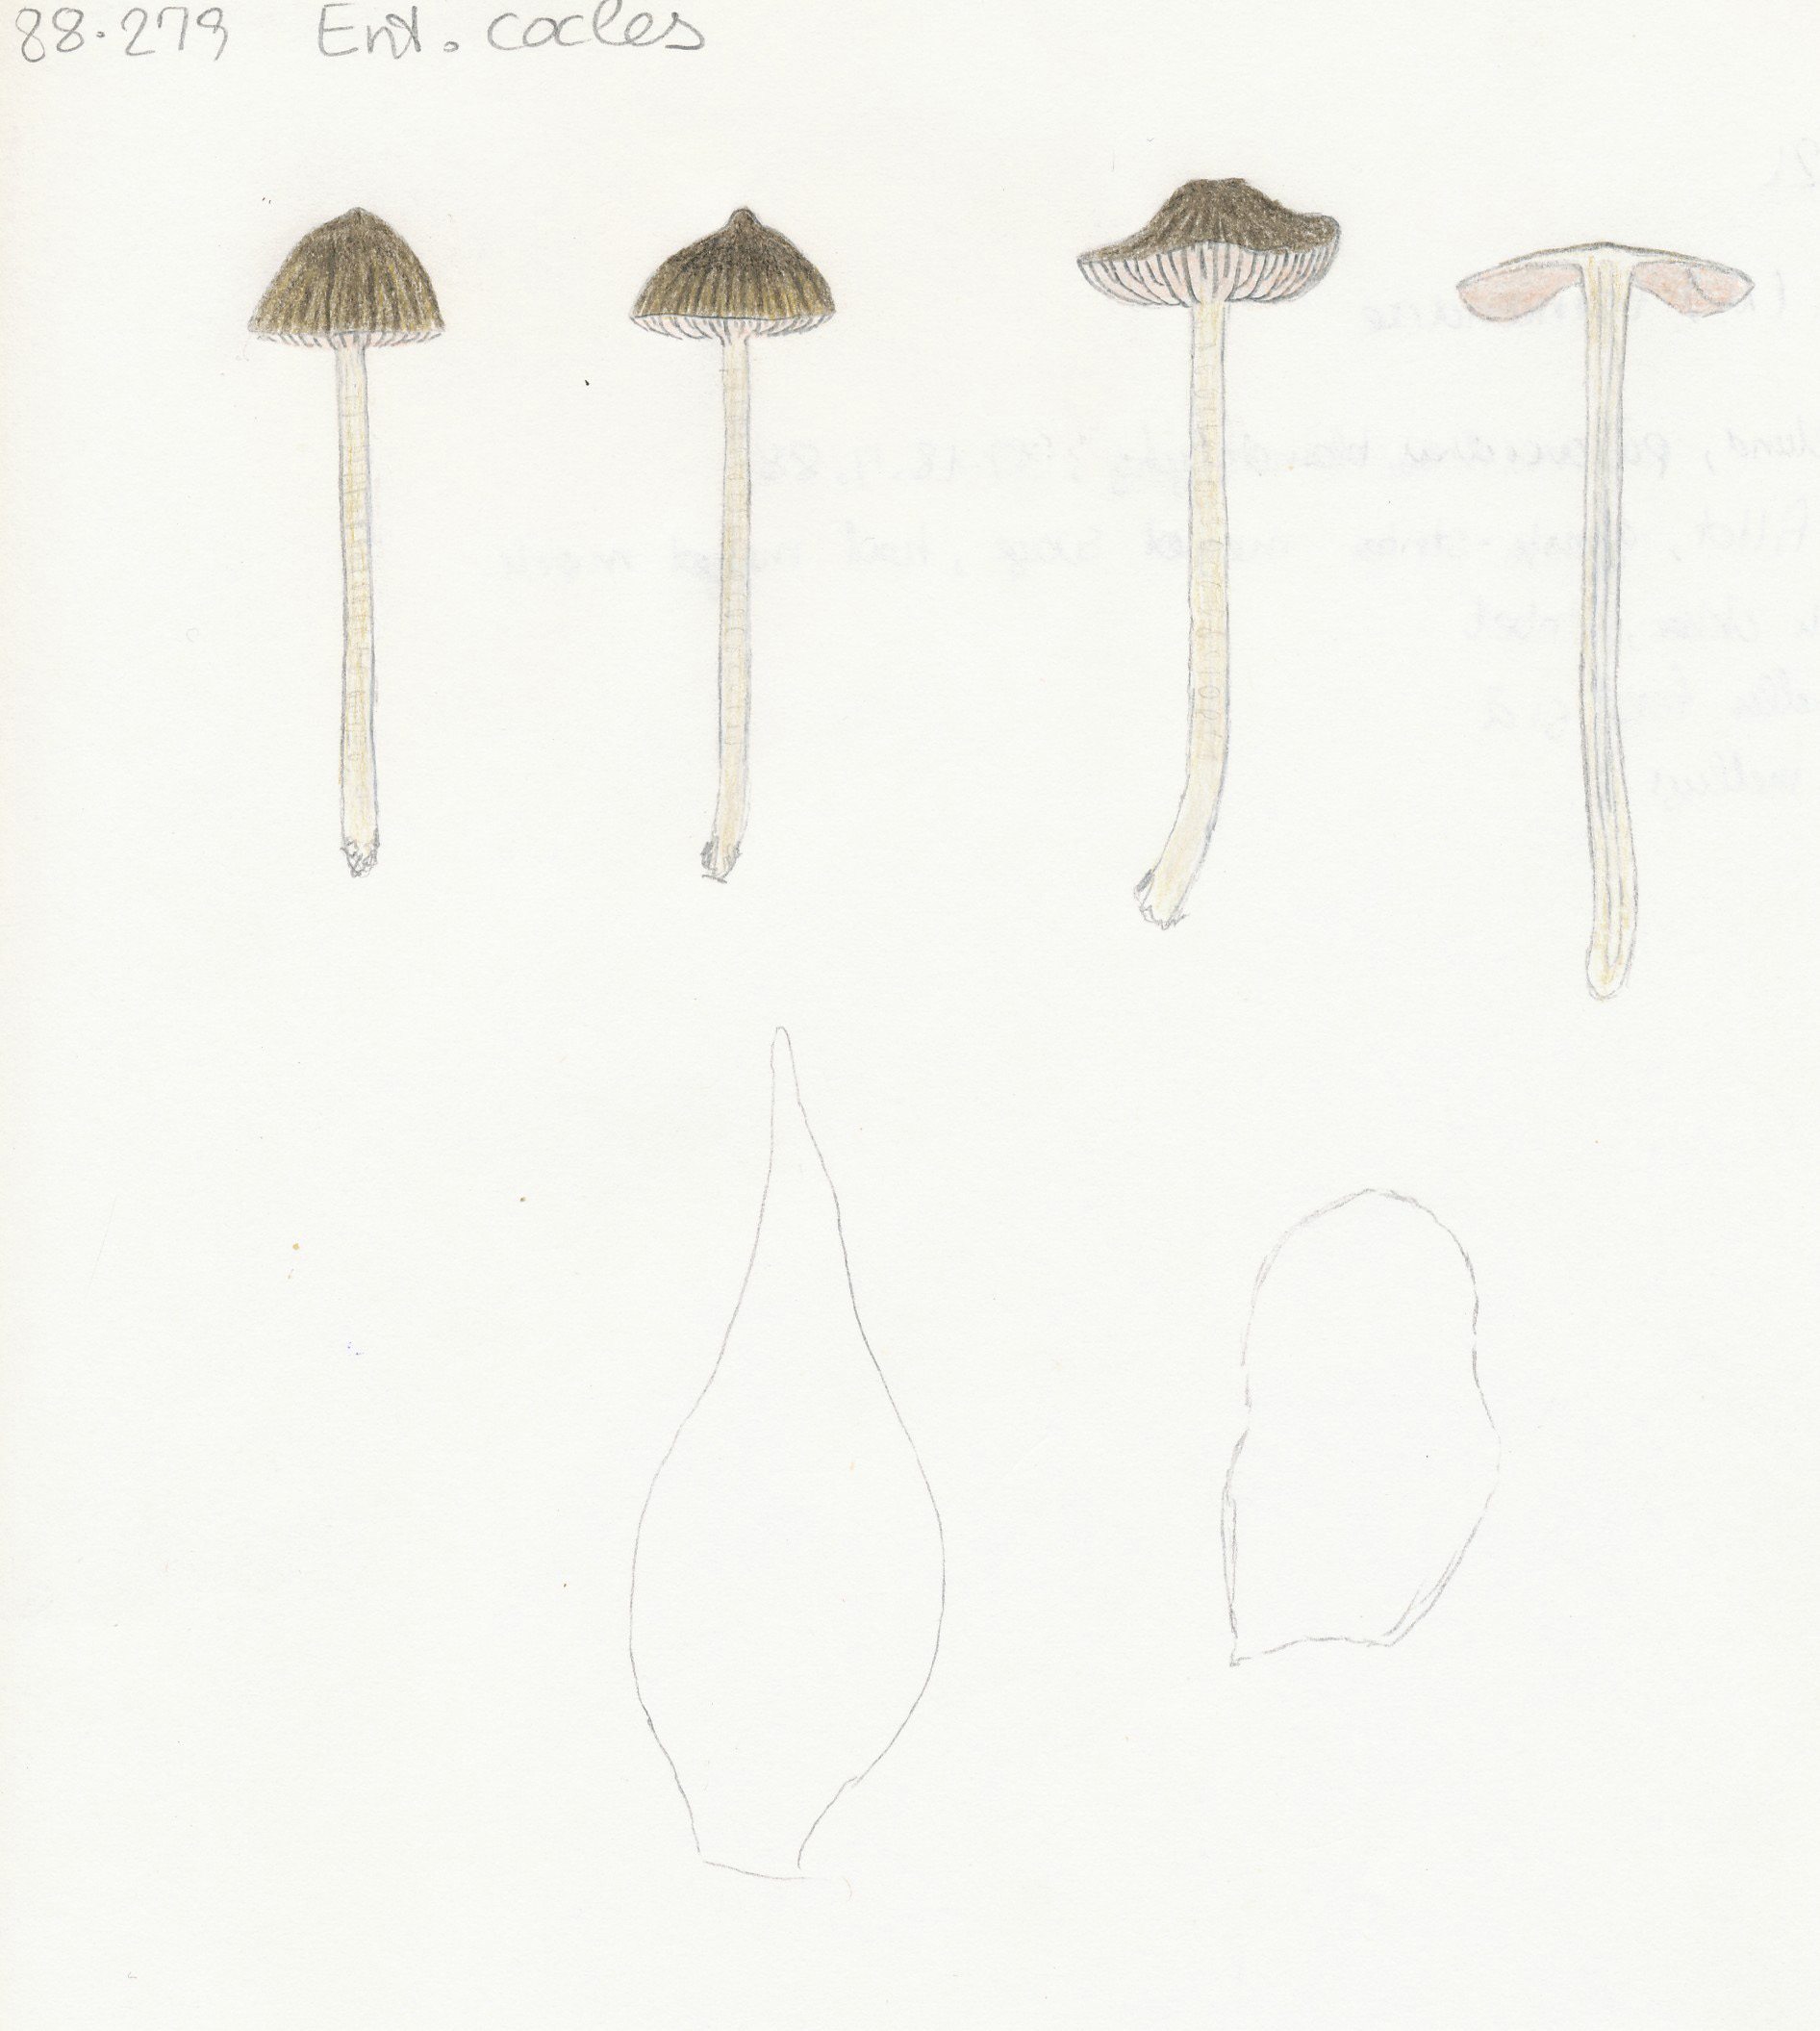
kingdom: Fungi
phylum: Basidiomycota
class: Agaricomycetes
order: Agaricales
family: Entolomataceae
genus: Entoloma
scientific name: Entoloma cocles
